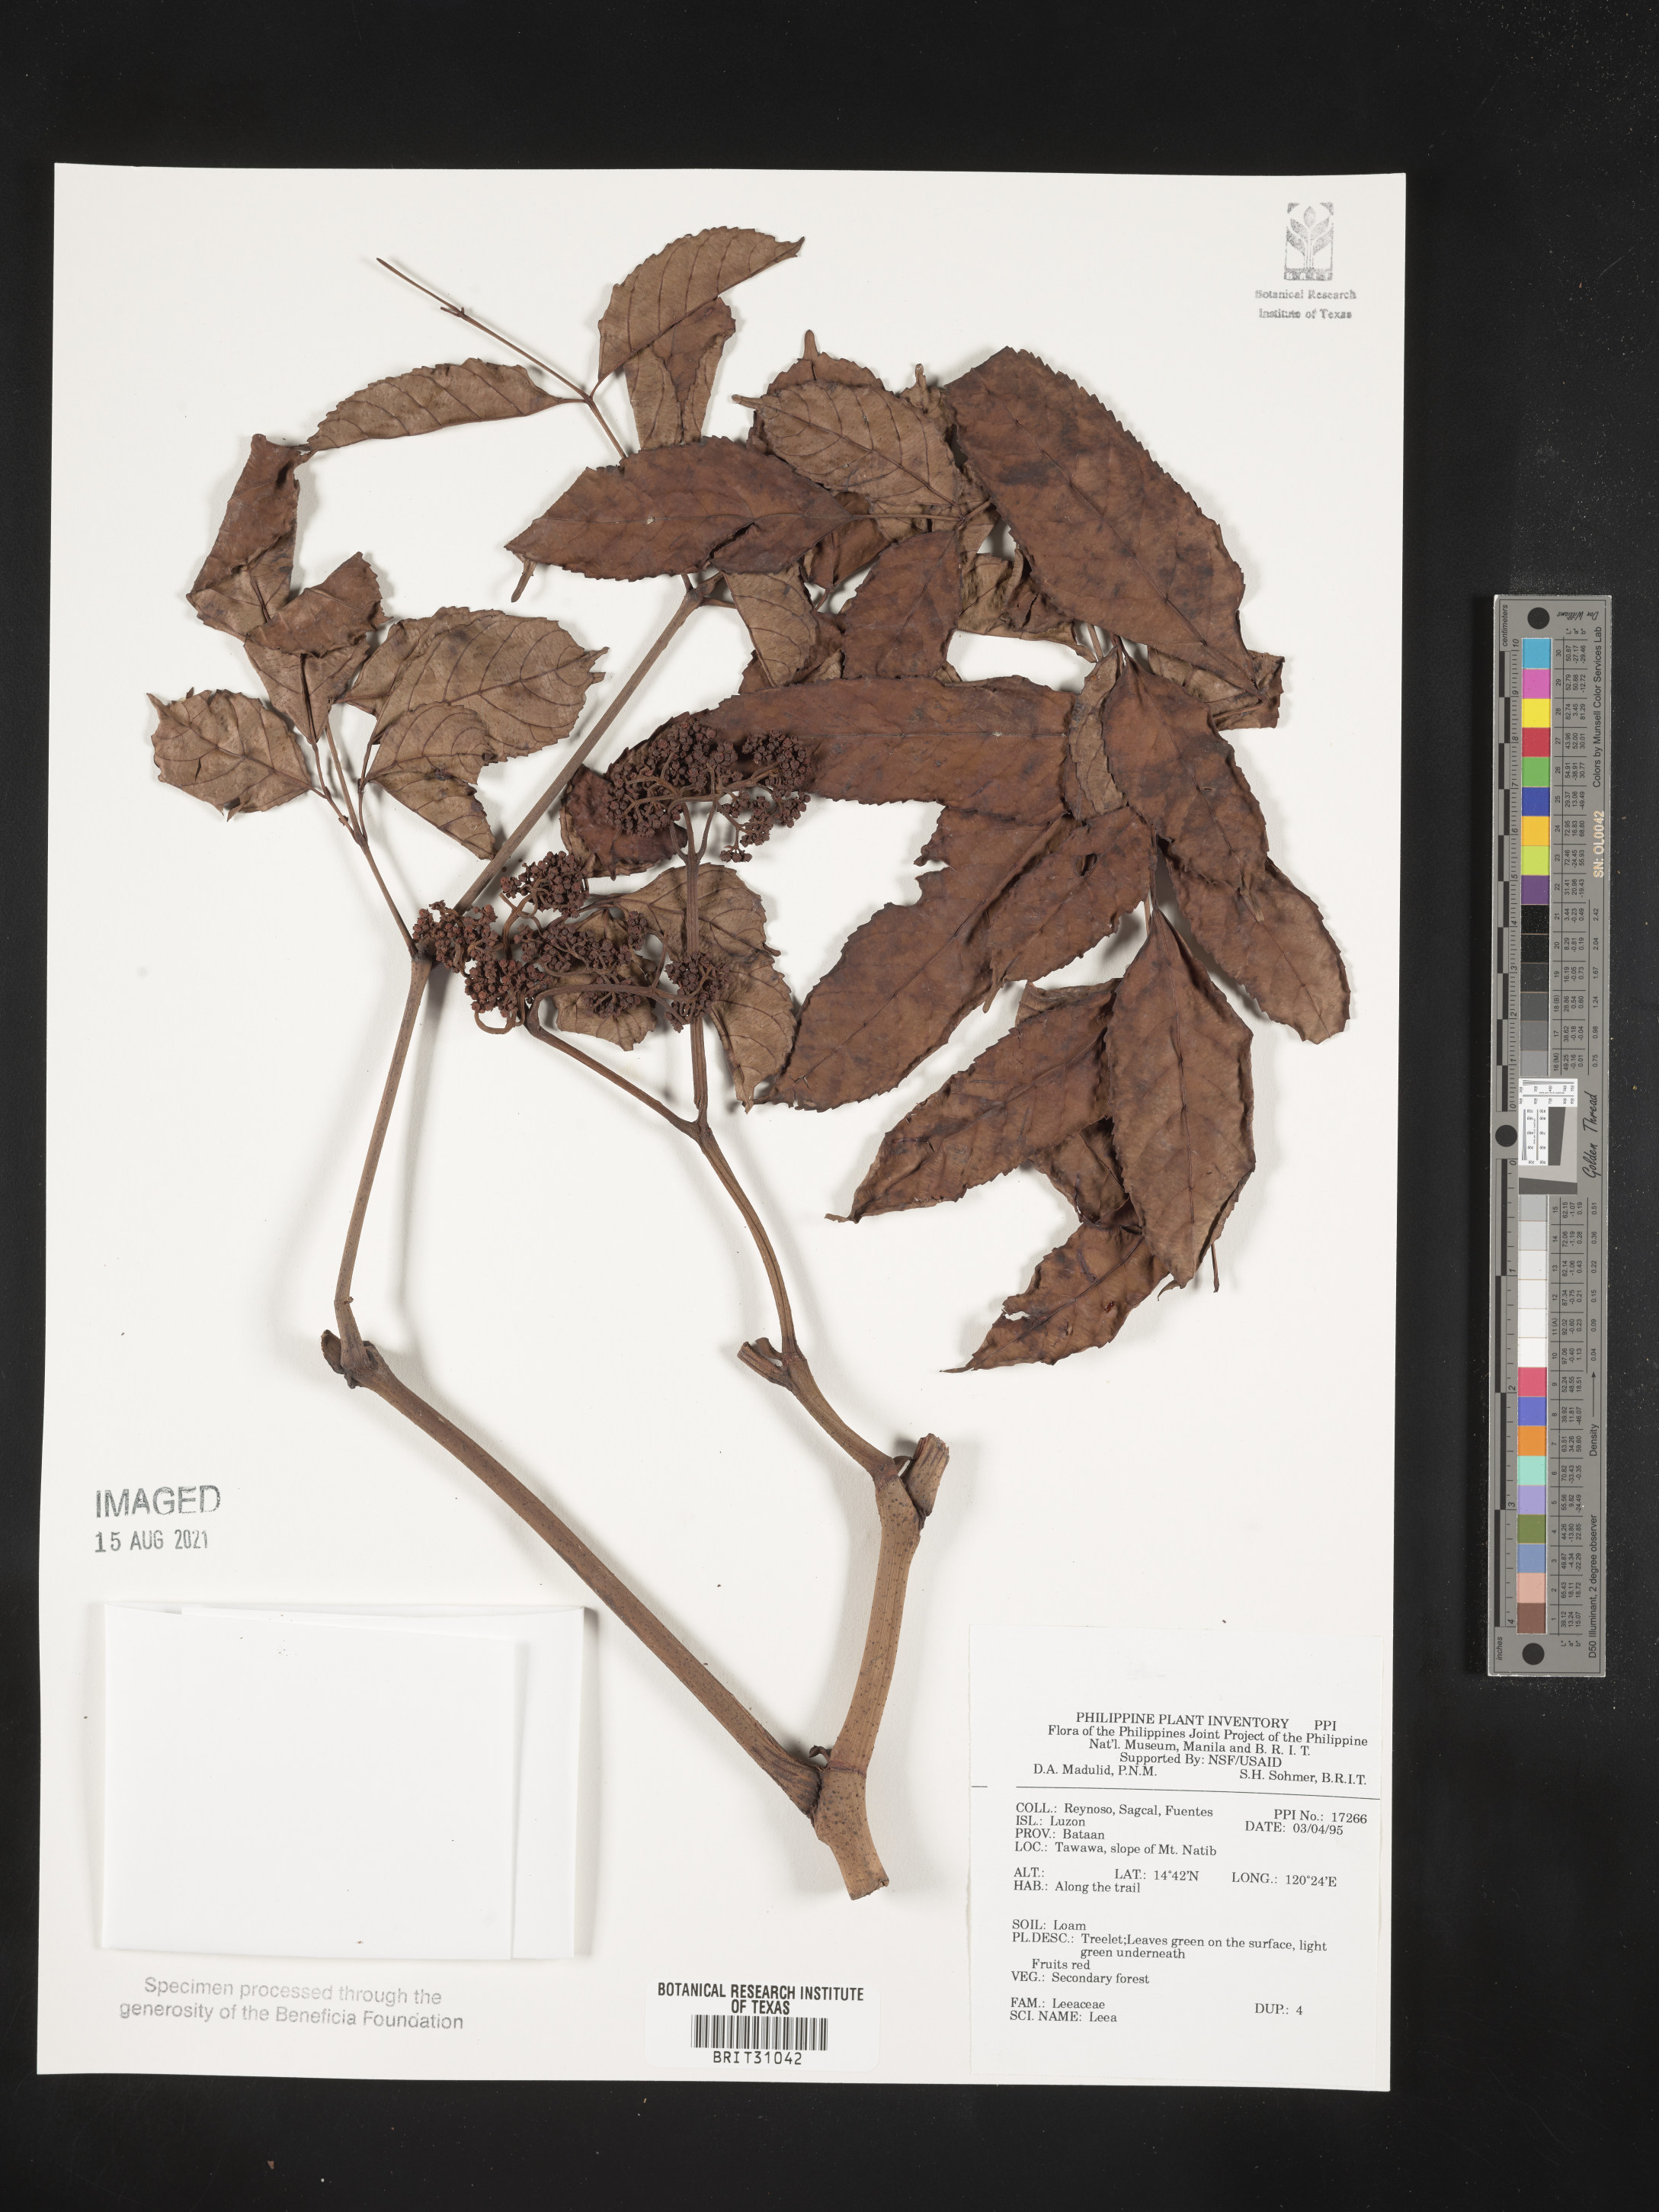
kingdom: Plantae
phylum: Tracheophyta
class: Magnoliopsida
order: Vitales
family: Vitaceae
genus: Leea
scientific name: Leea
